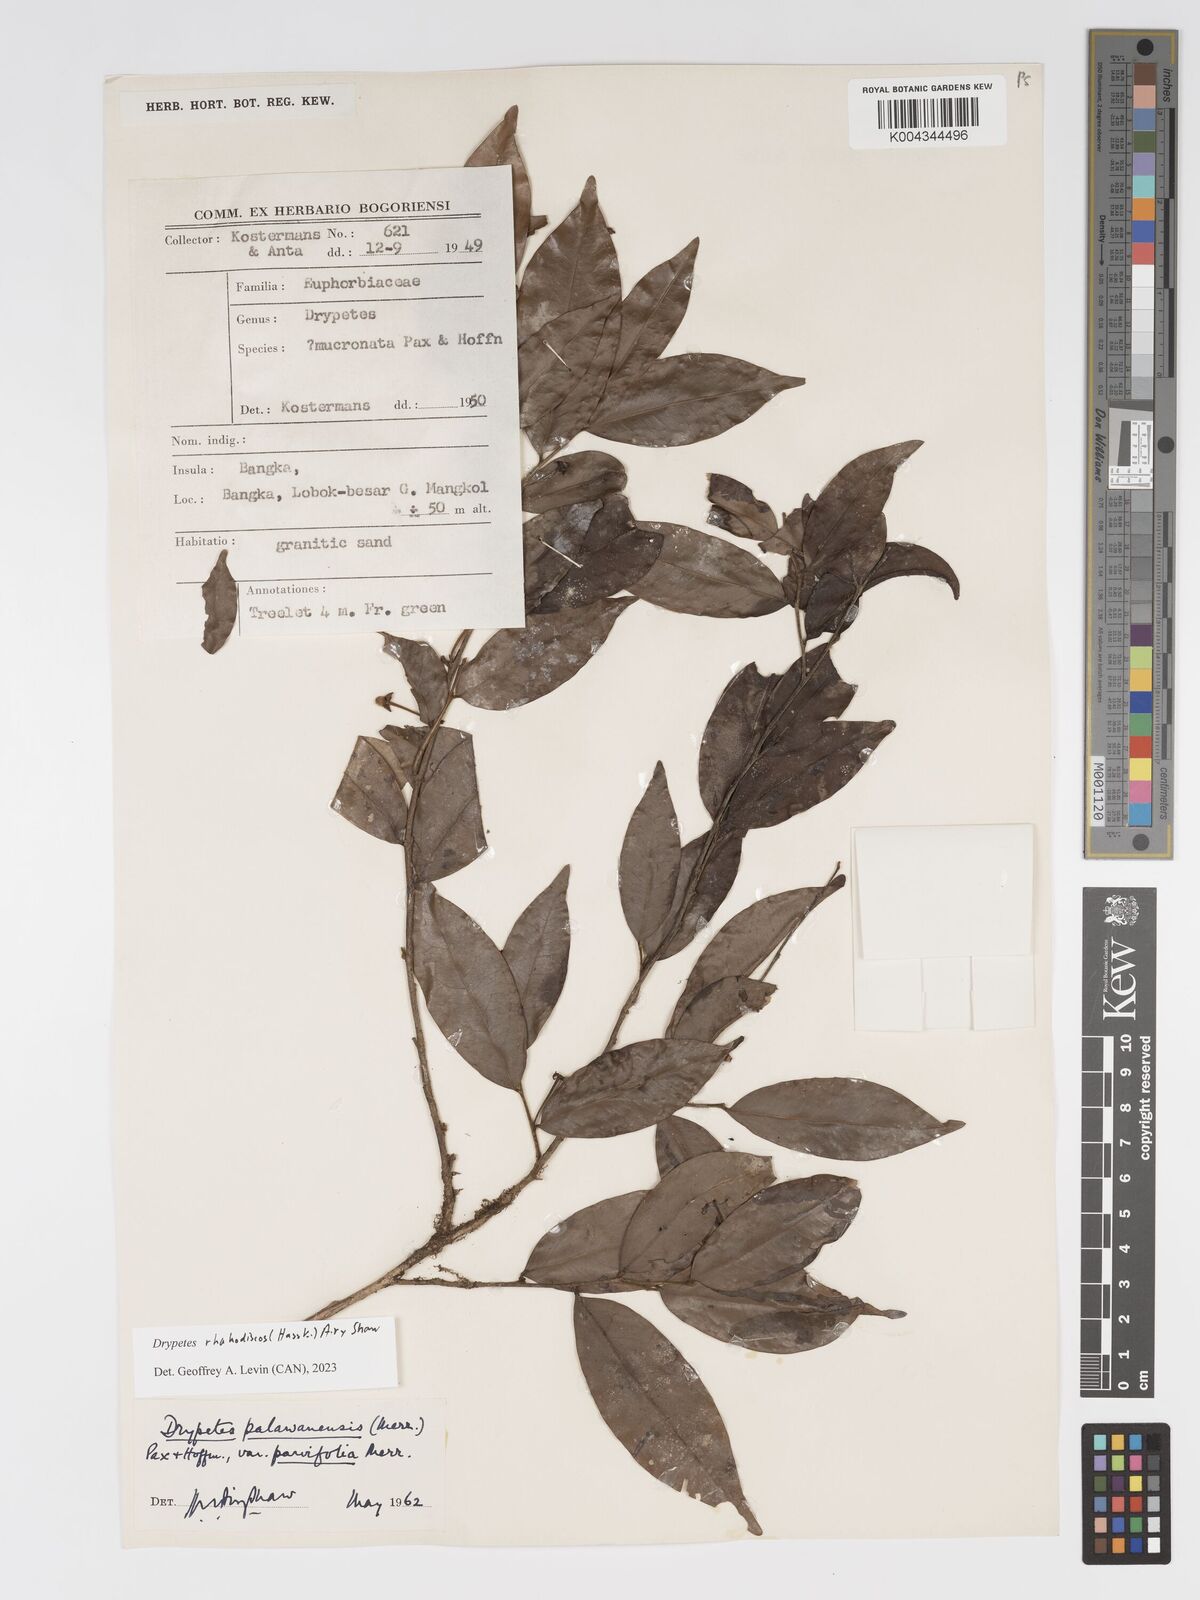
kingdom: Plantae
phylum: Tracheophyta
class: Magnoliopsida
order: Malpighiales
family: Putranjivaceae
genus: Drypetes
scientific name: Drypetes rhakodiskos
